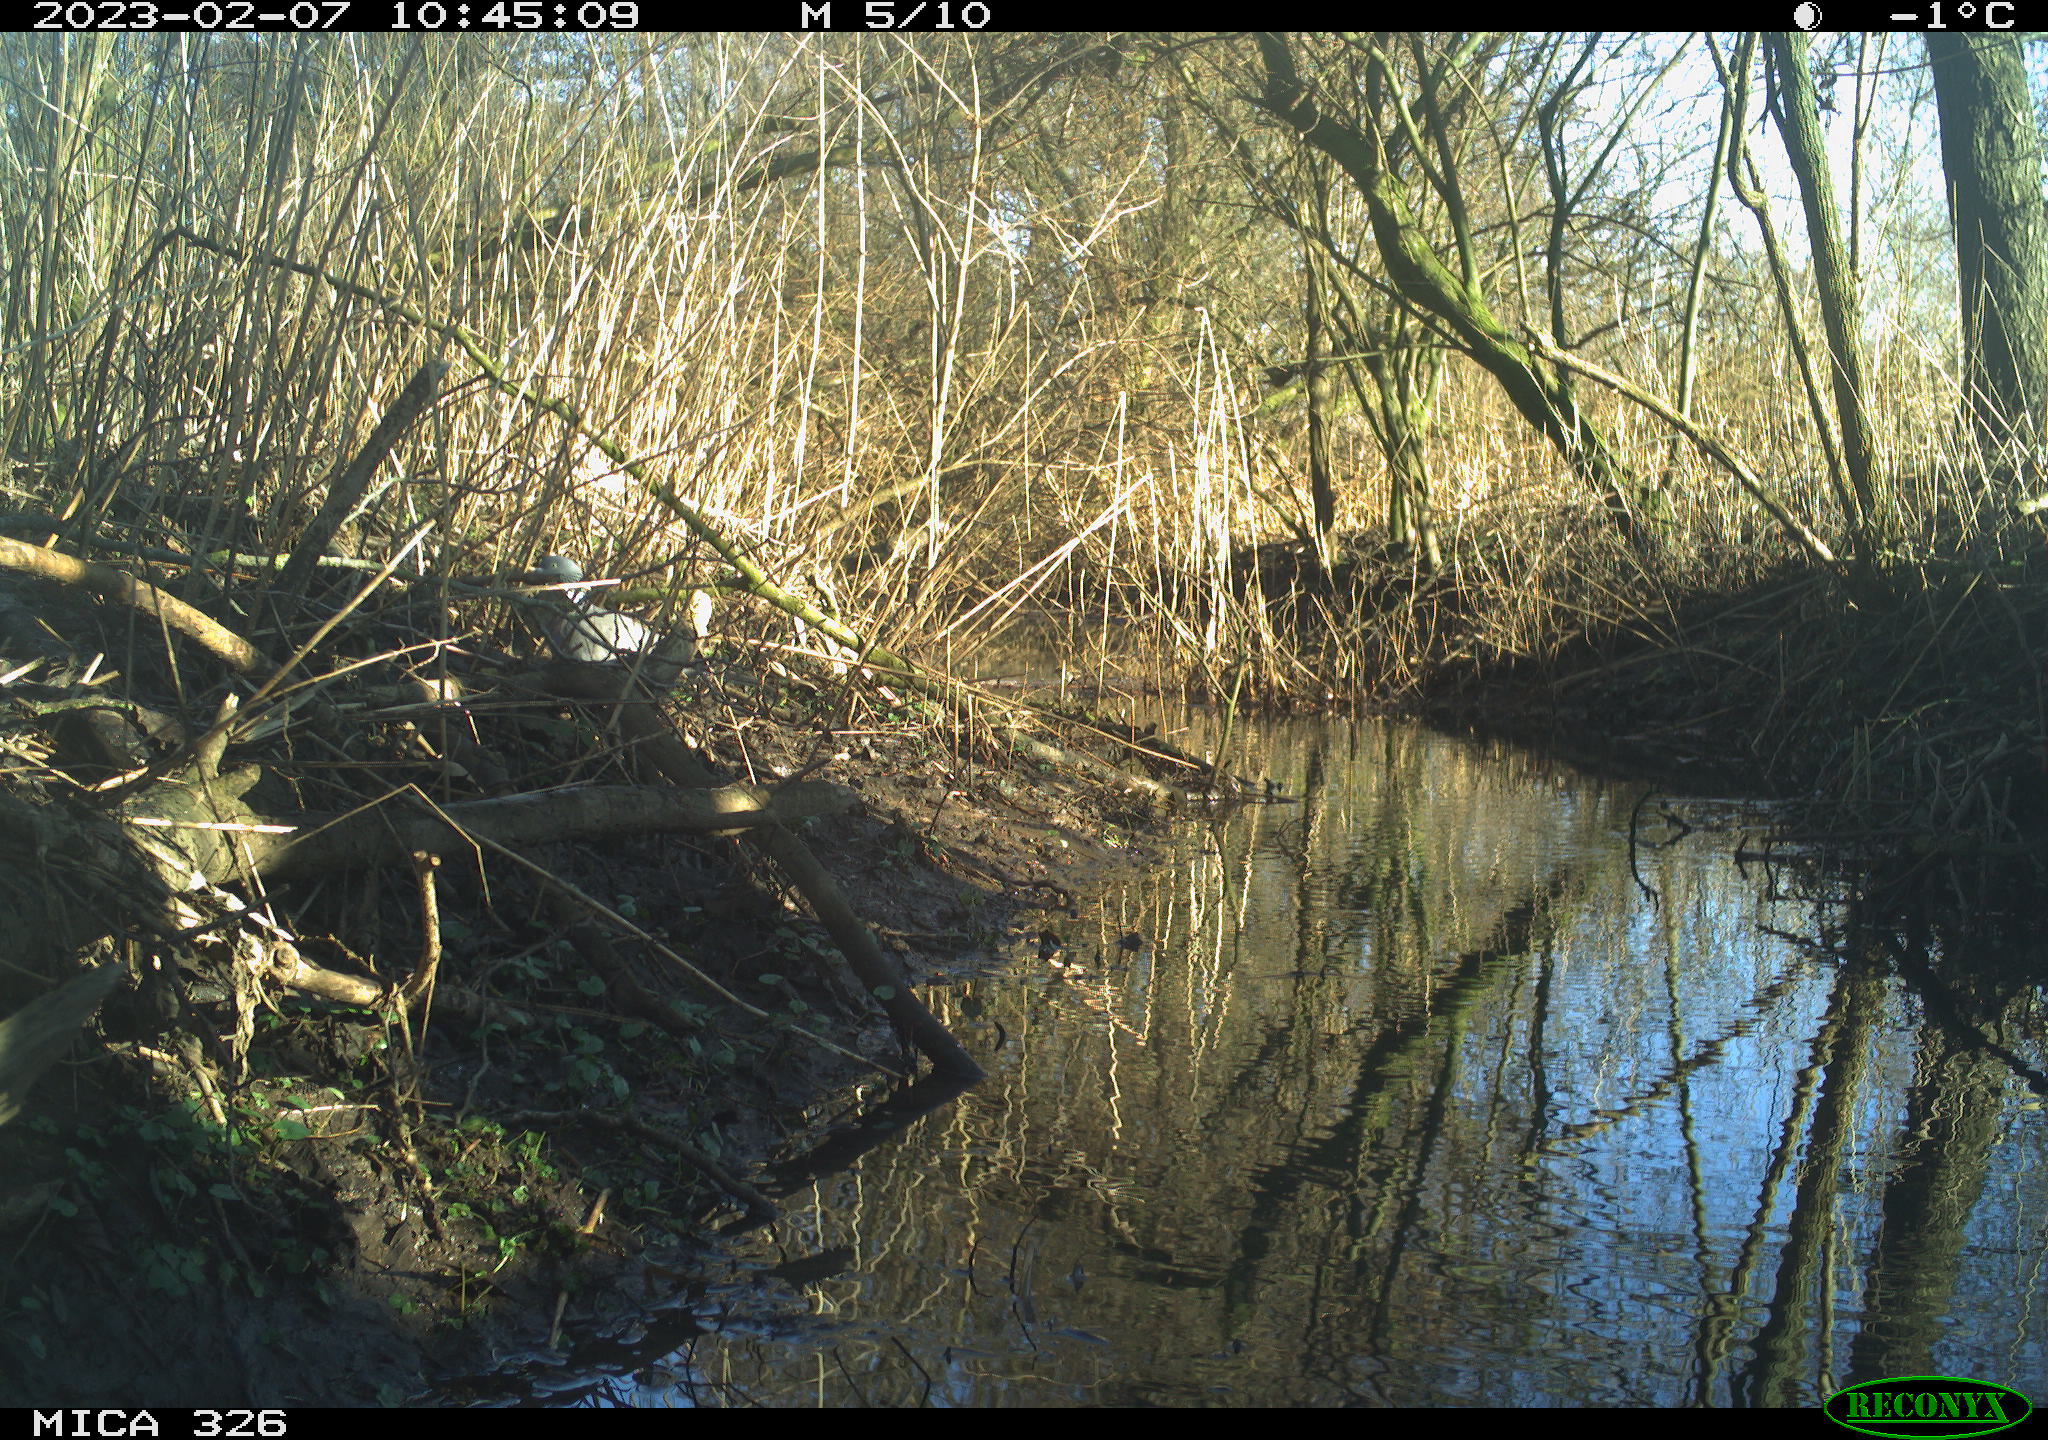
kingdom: Animalia
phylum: Chordata
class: Aves
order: Columbiformes
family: Columbidae
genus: Columba
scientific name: Columba palumbus
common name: Common wood pigeon
